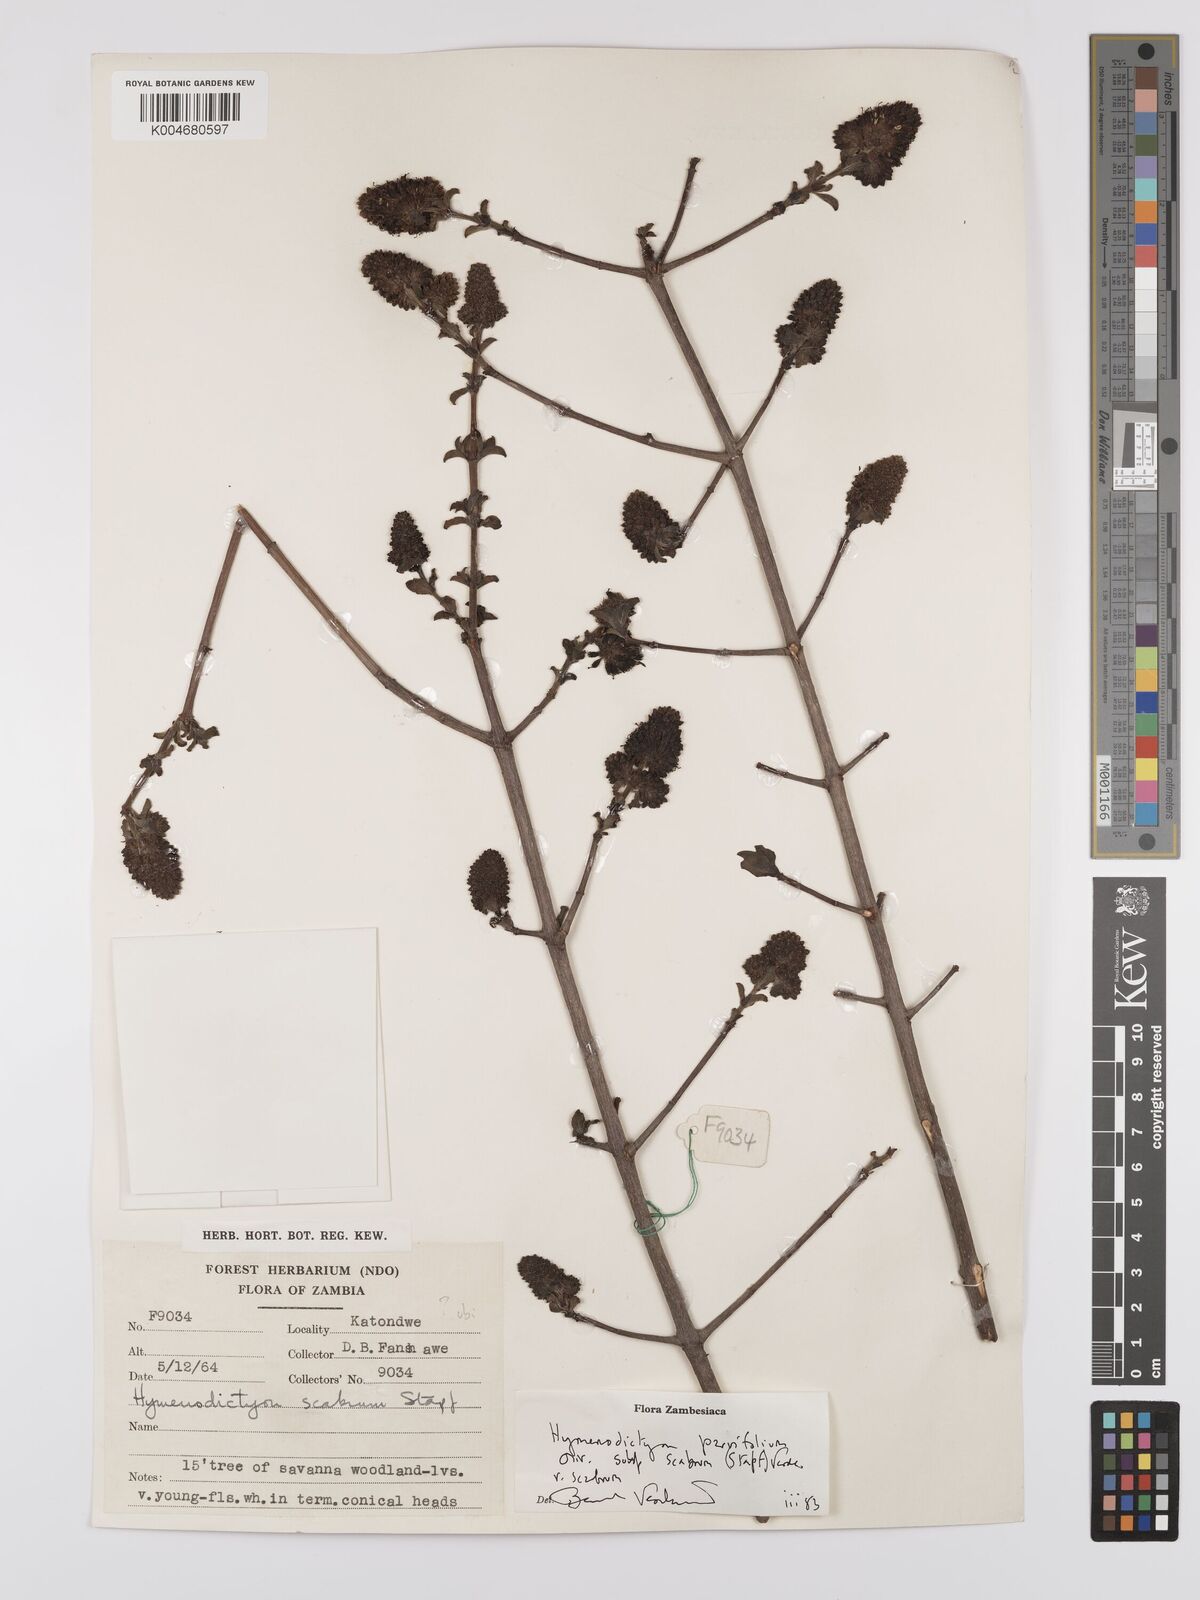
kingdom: Plantae
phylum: Tracheophyta
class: Magnoliopsida
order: Gentianales
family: Rubiaceae
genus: Hymenodictyon
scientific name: Hymenodictyon scabrum
